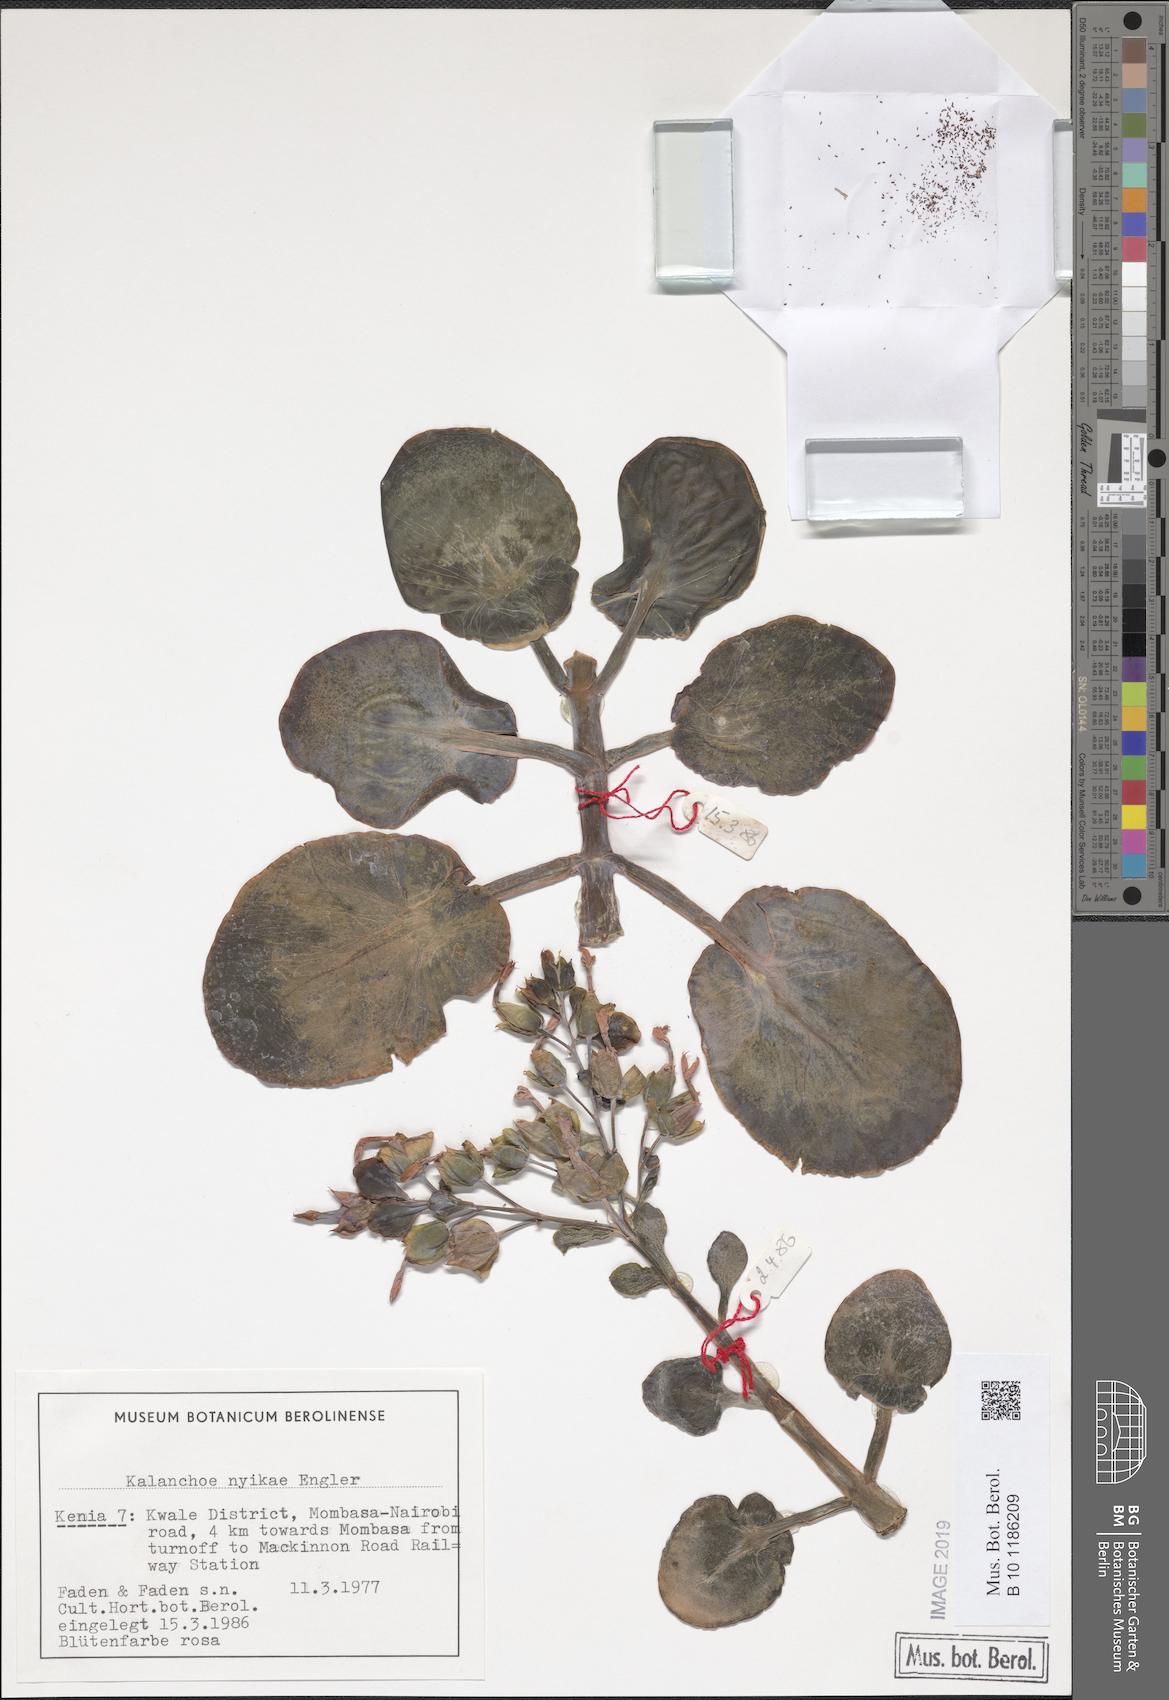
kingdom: Plantae
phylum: Tracheophyta
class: Magnoliopsida
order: Saxifragales
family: Crassulaceae
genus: Kalanchoe
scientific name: Kalanchoe nyikae
